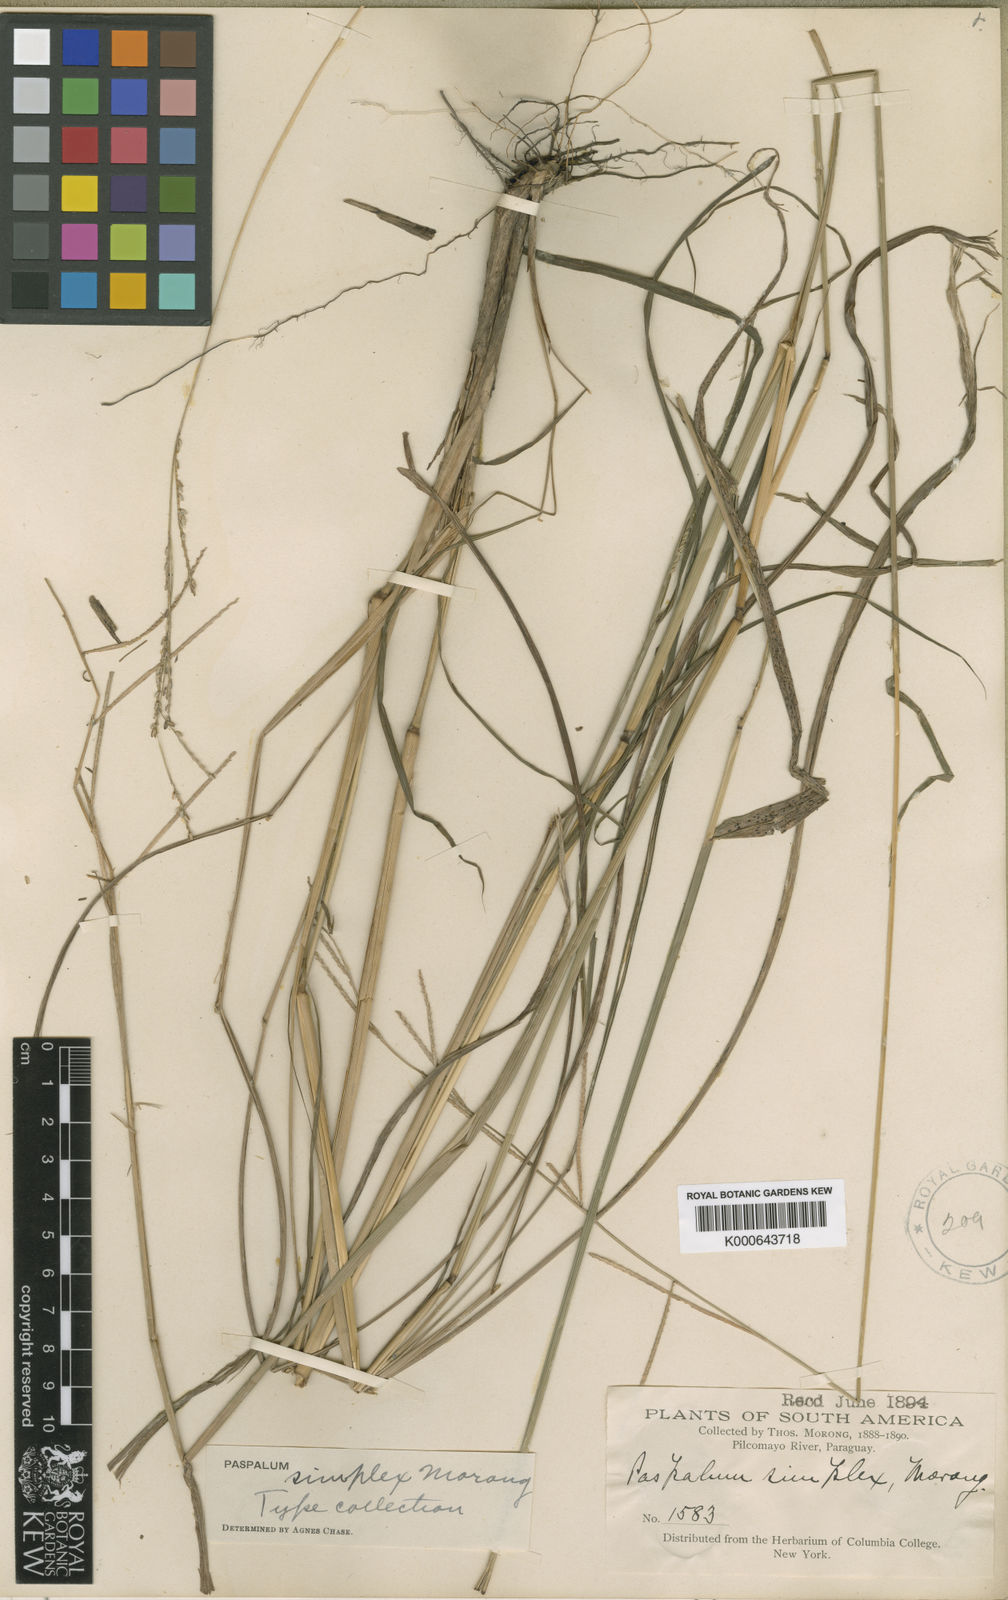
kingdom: Plantae
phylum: Tracheophyta
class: Liliopsida
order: Poales
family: Poaceae
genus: Paspalum
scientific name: Paspalum simplex
